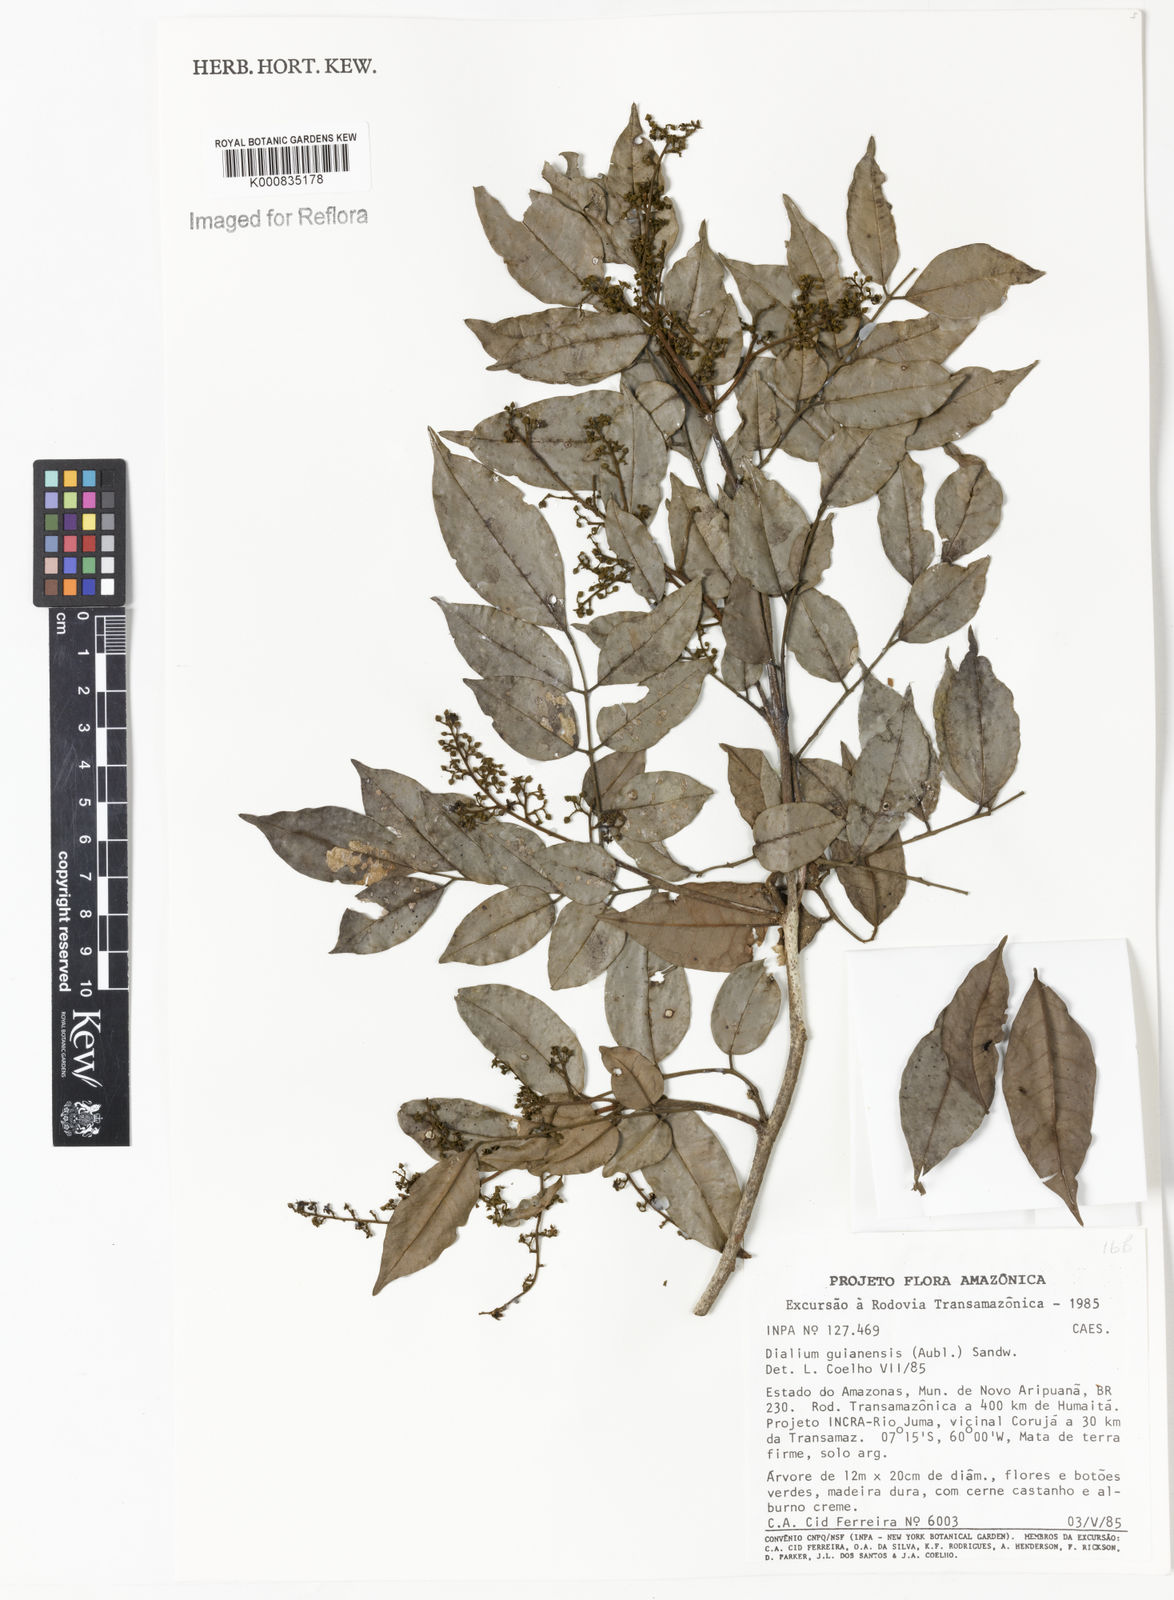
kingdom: Plantae
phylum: Tracheophyta
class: Magnoliopsida
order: Fabales
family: Fabaceae
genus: Dialium
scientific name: Dialium guianense
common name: Ironwood
